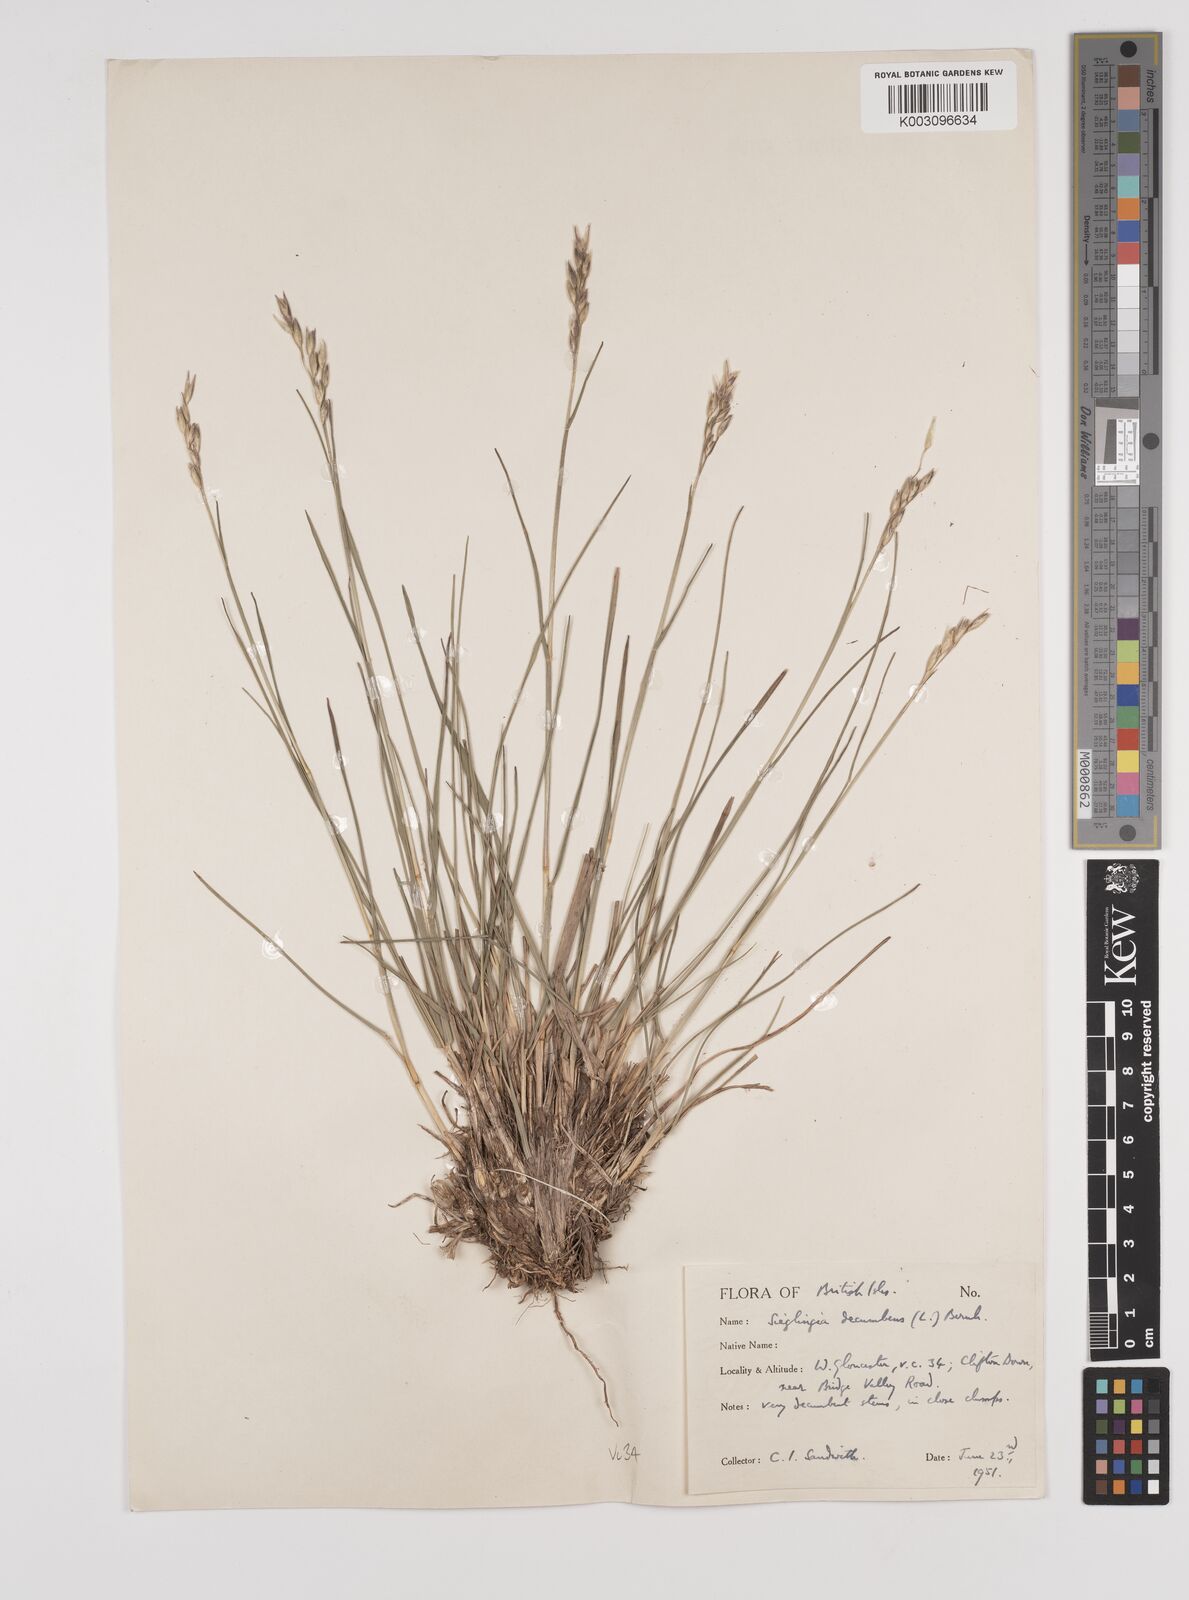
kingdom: Plantae
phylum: Tracheophyta
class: Liliopsida
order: Poales
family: Poaceae
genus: Danthonia
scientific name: Danthonia decumbens
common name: Common heathgrass
